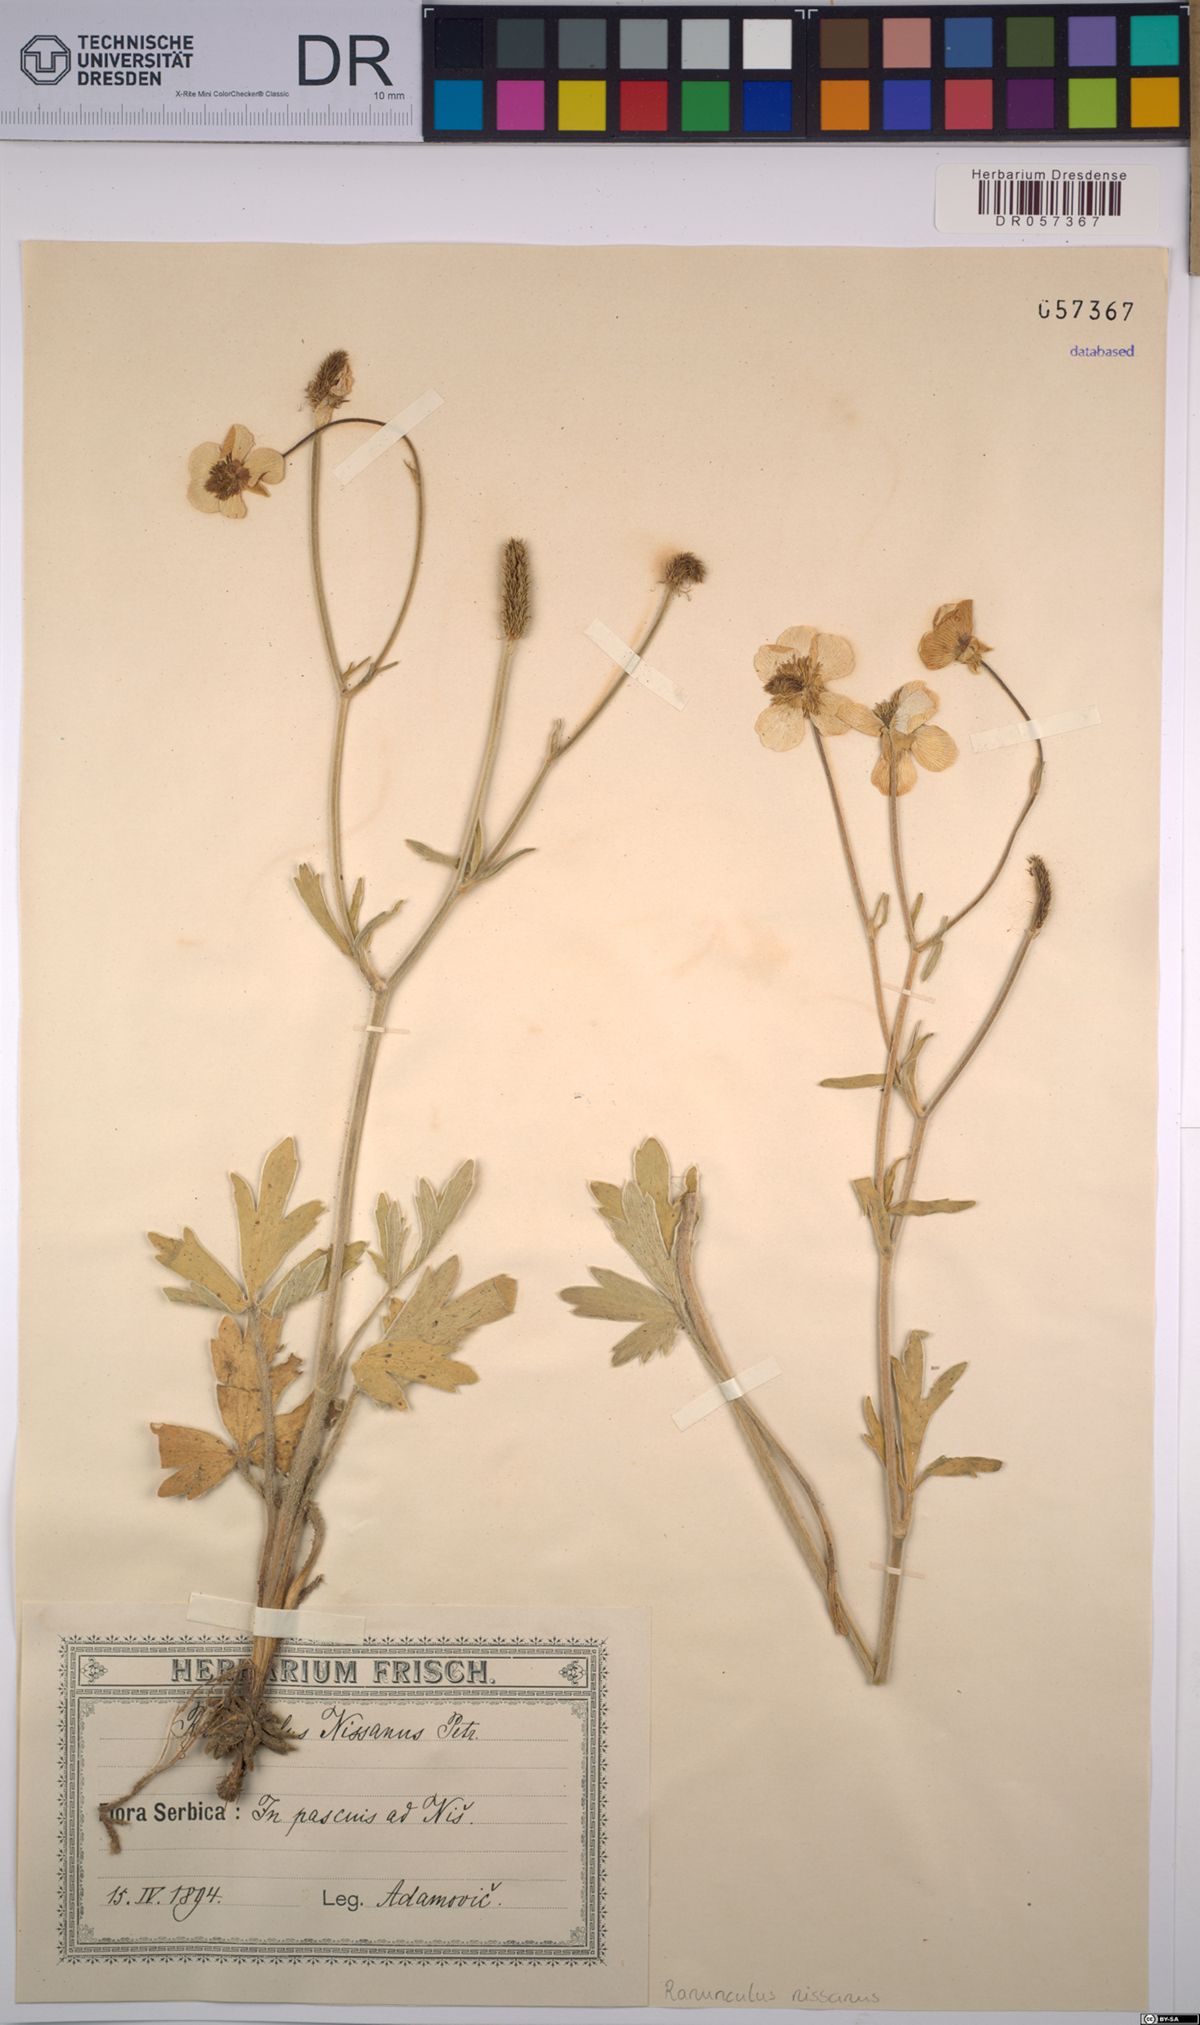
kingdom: Plantae
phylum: Tracheophyta
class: Magnoliopsida
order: Ranunculales
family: Ranunculaceae
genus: Ranunculus
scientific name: Ranunculus psilostachys
